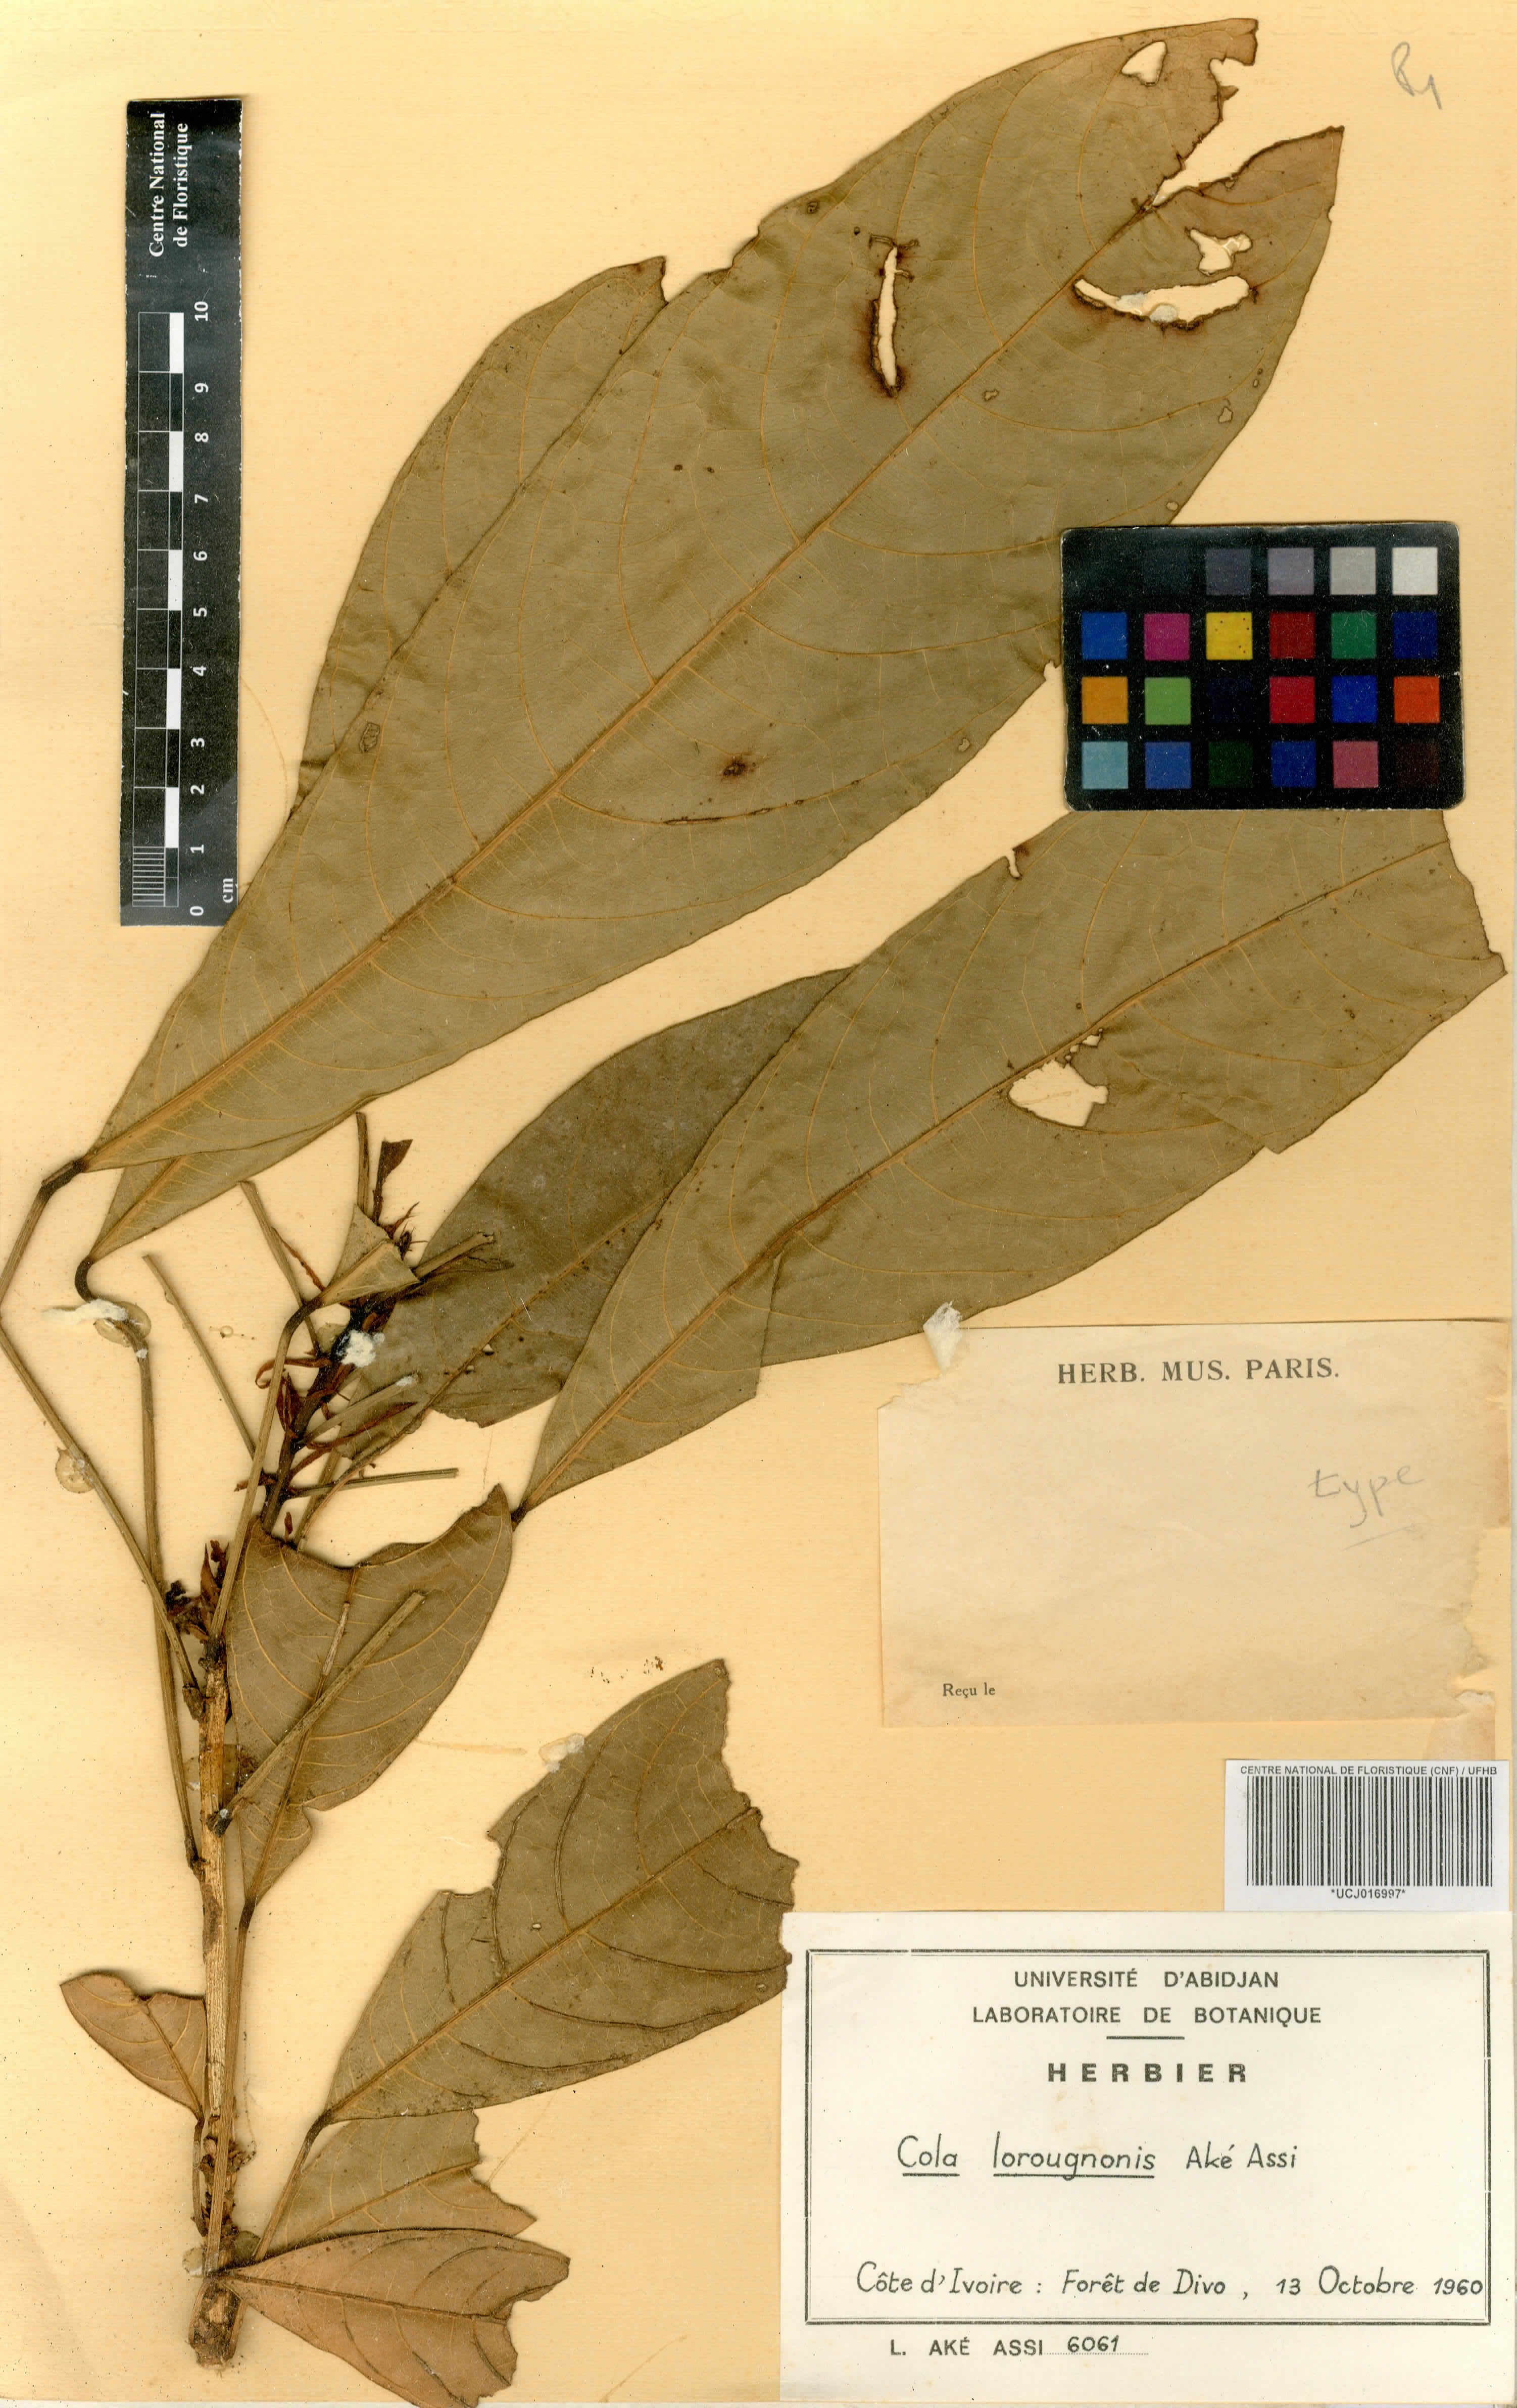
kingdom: Plantae
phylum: Tracheophyta
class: Magnoliopsida
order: Malvales
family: Malvaceae
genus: Cola
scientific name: Cola lorougnonis
